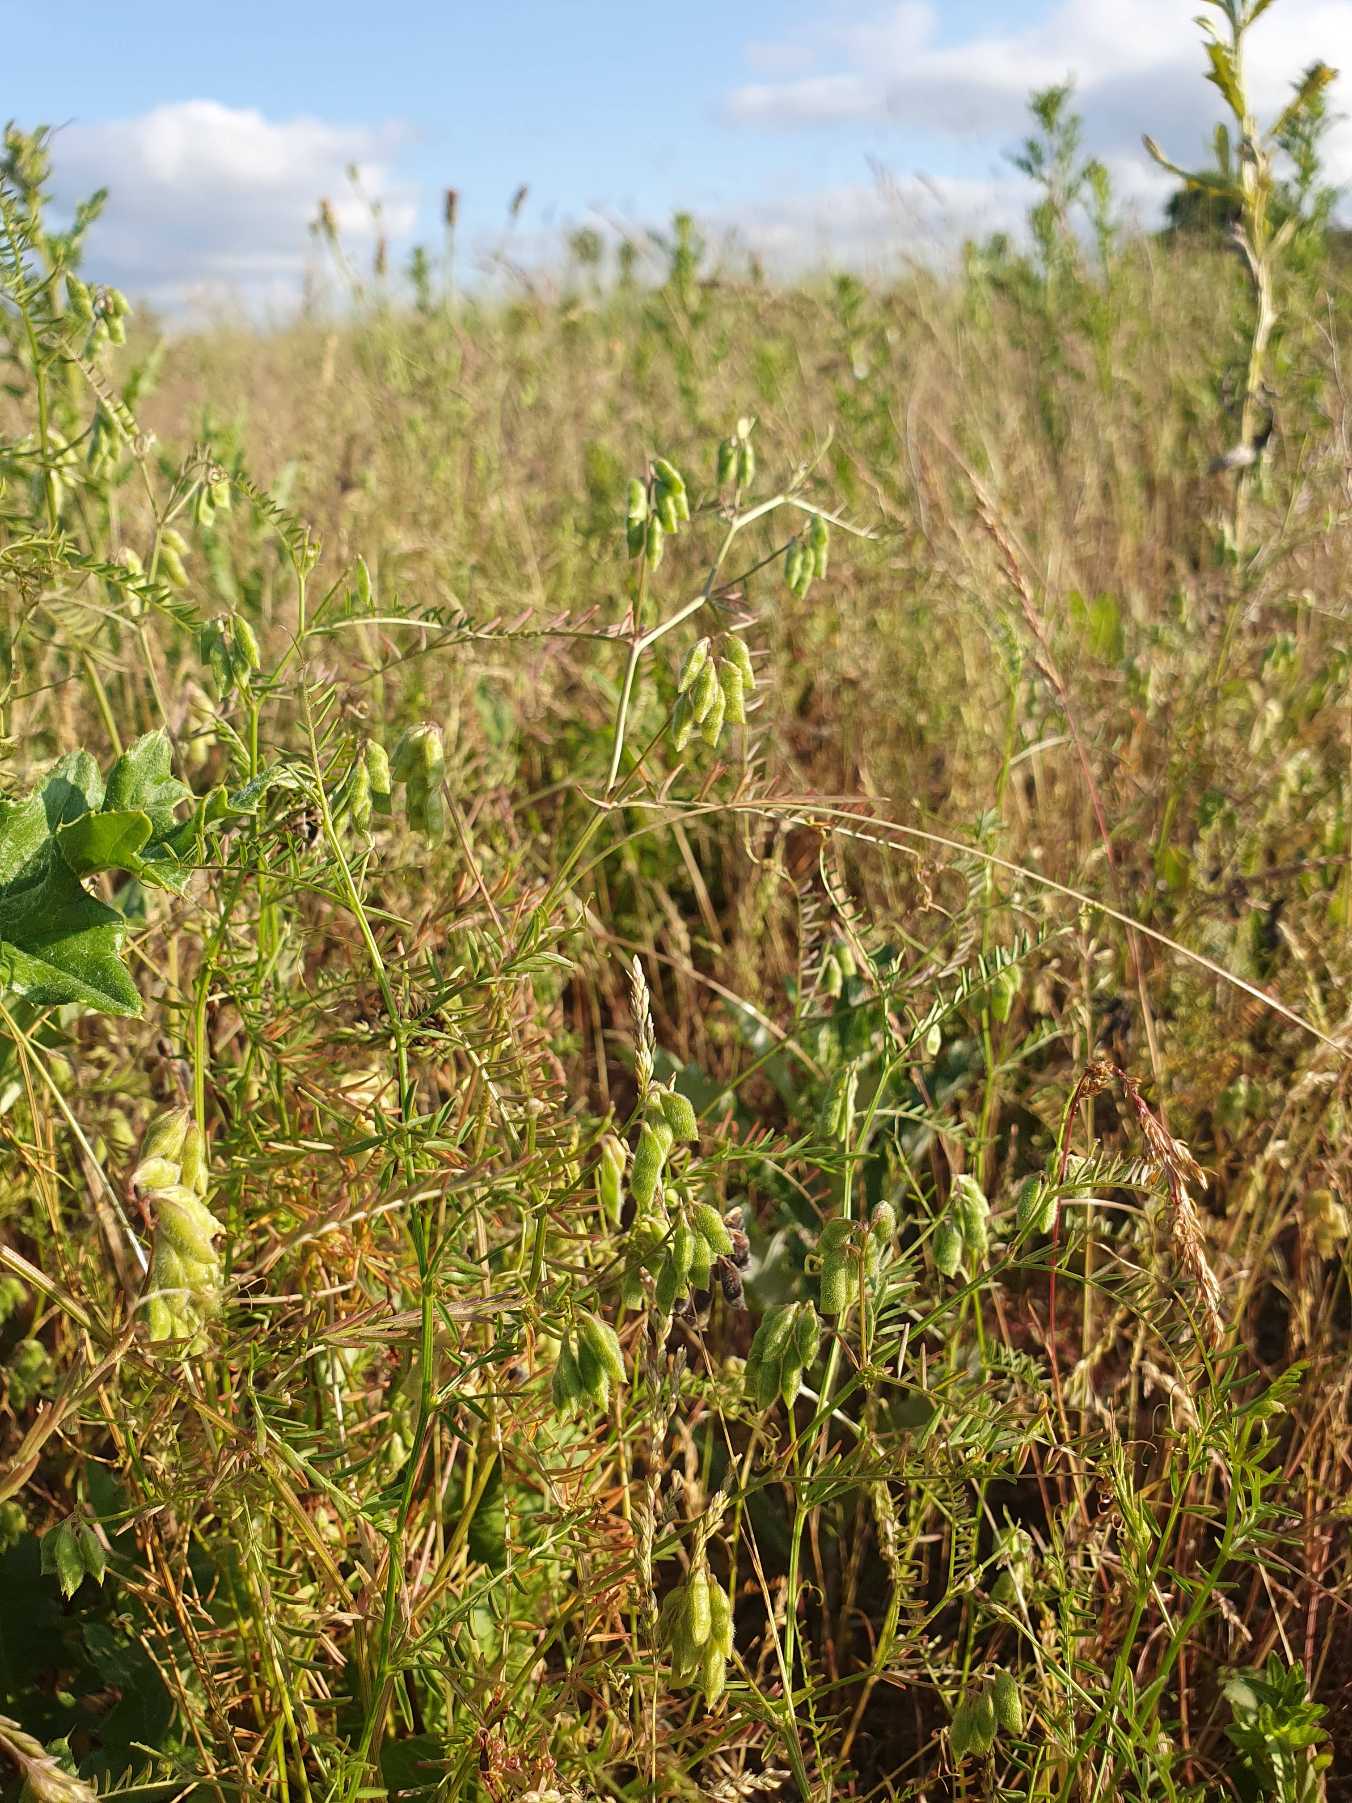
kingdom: Plantae
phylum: Tracheophyta
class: Magnoliopsida
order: Fabales
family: Fabaceae
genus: Vicia
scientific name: Vicia hirsuta
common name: Tofrøet vikke
